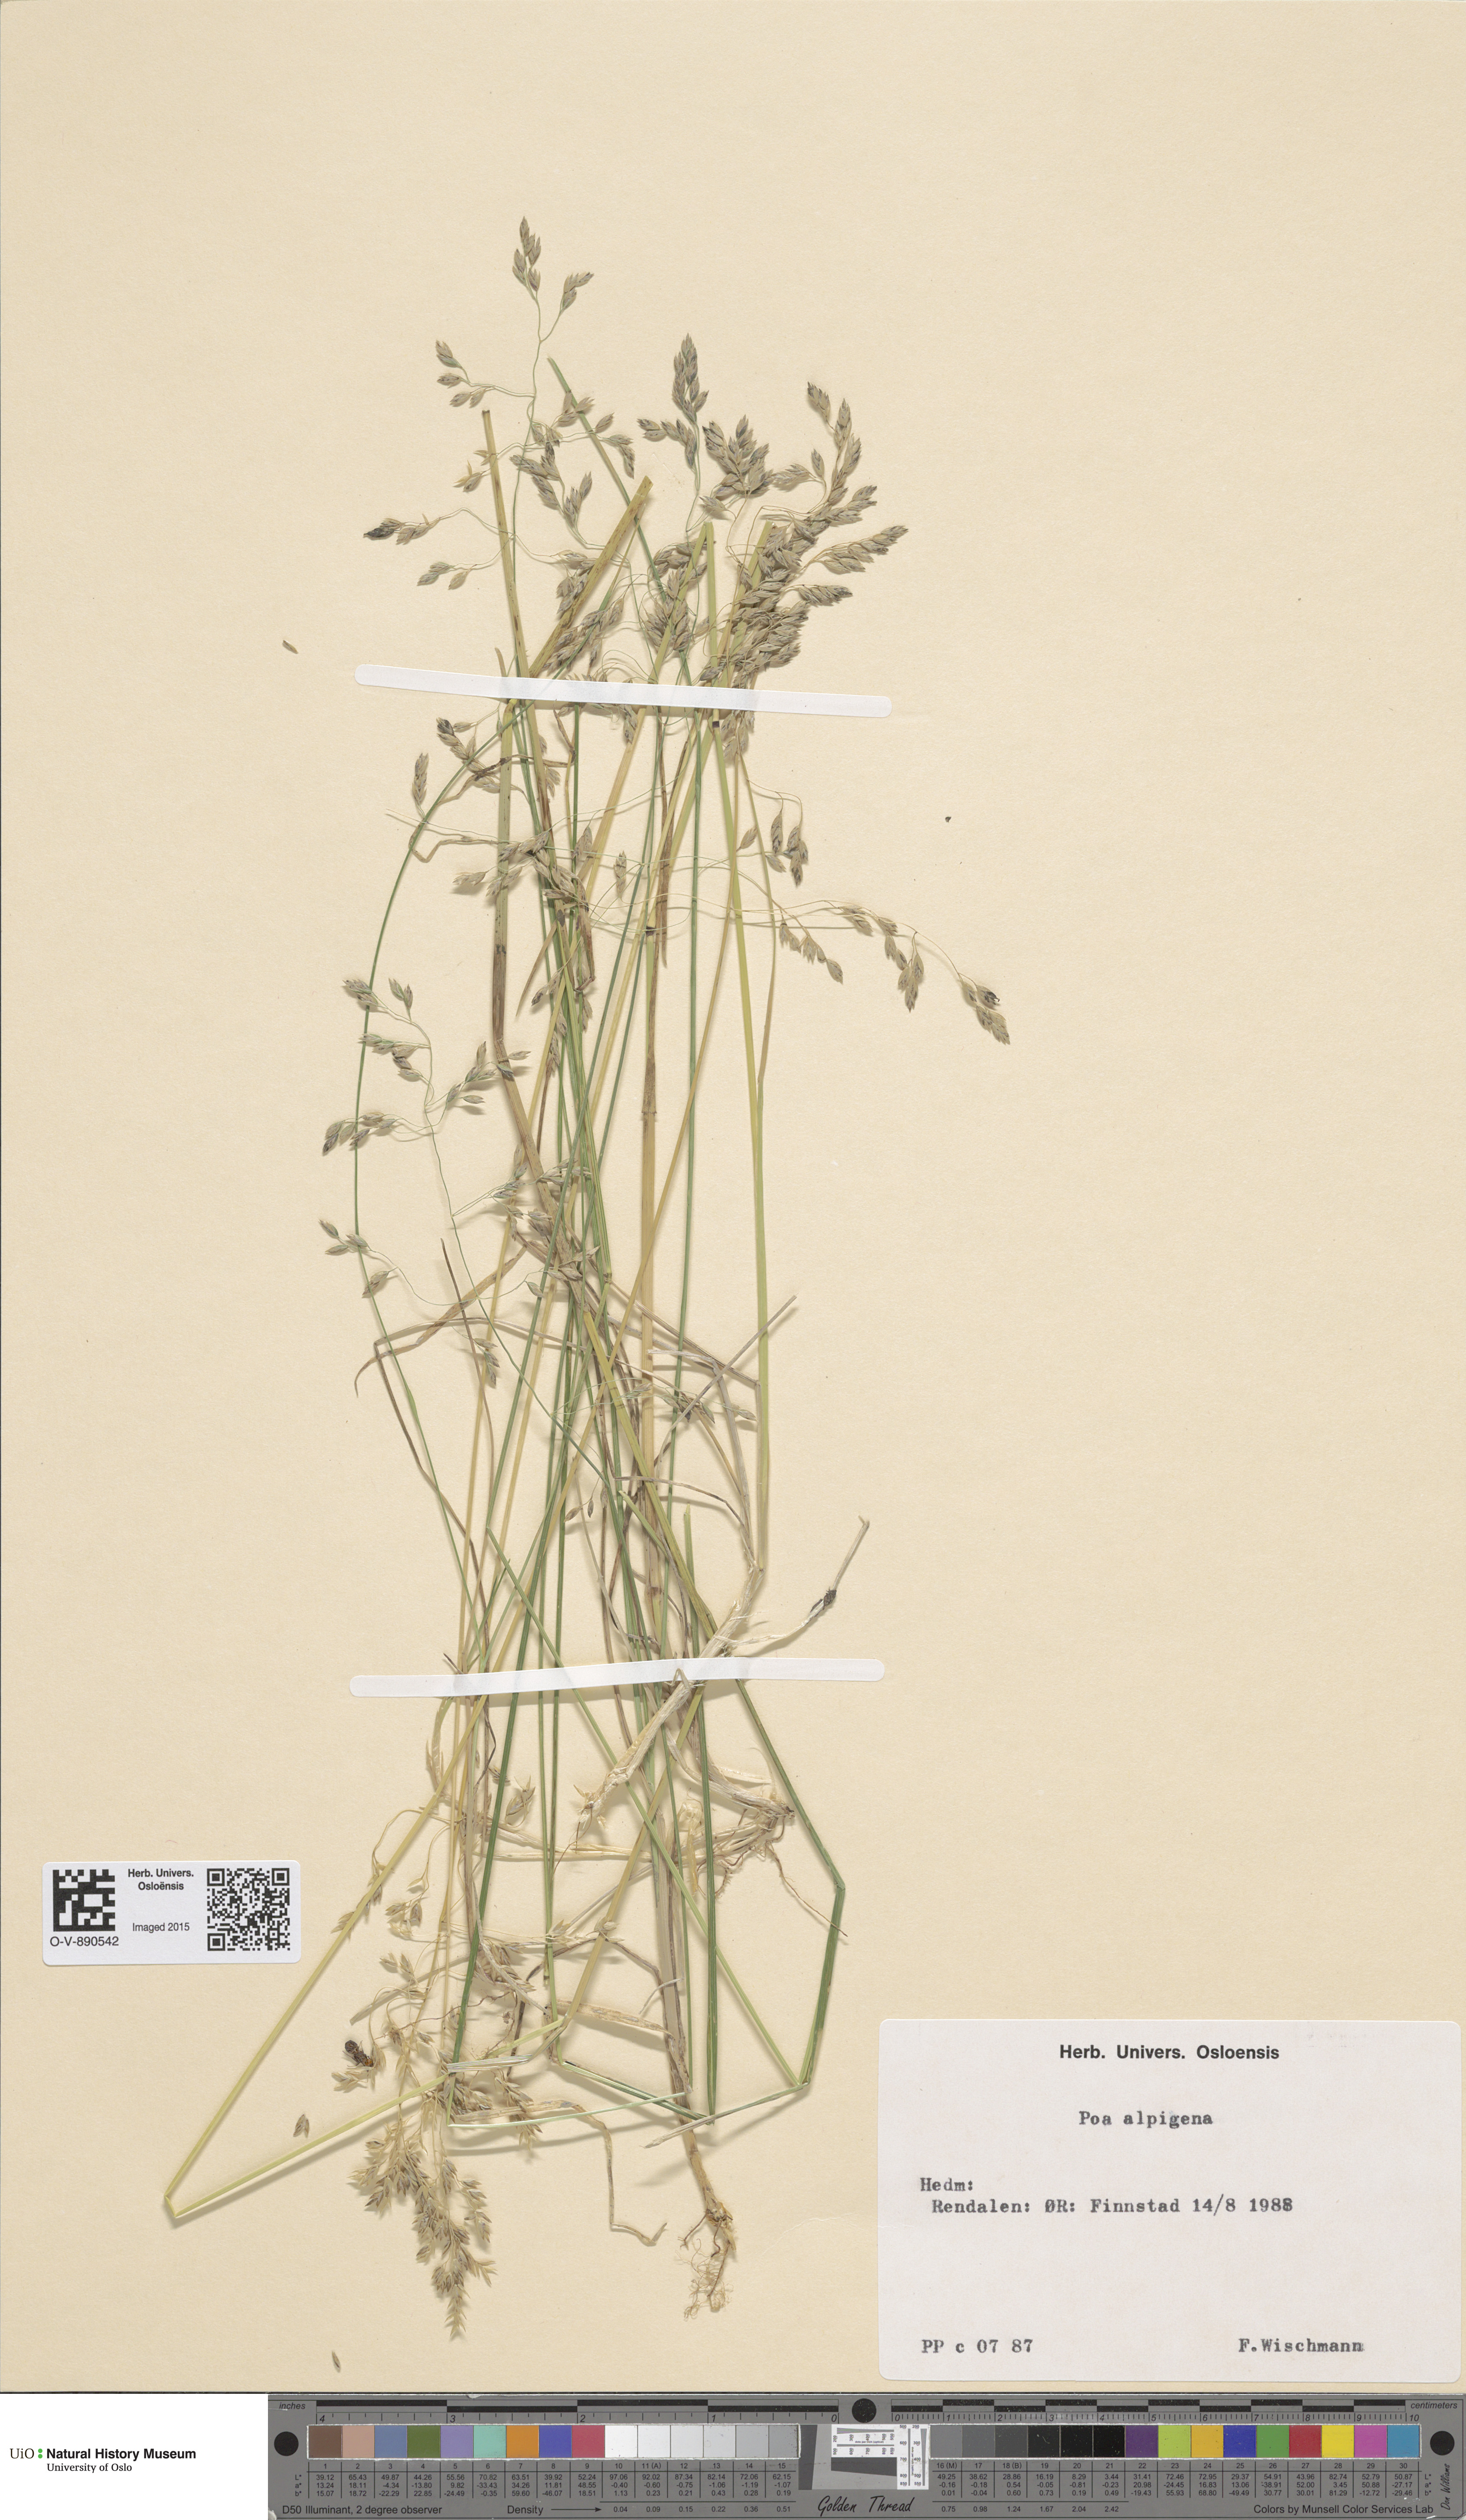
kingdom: Plantae
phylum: Tracheophyta
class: Liliopsida
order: Poales
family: Poaceae
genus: Poa
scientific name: Poa alpigena
